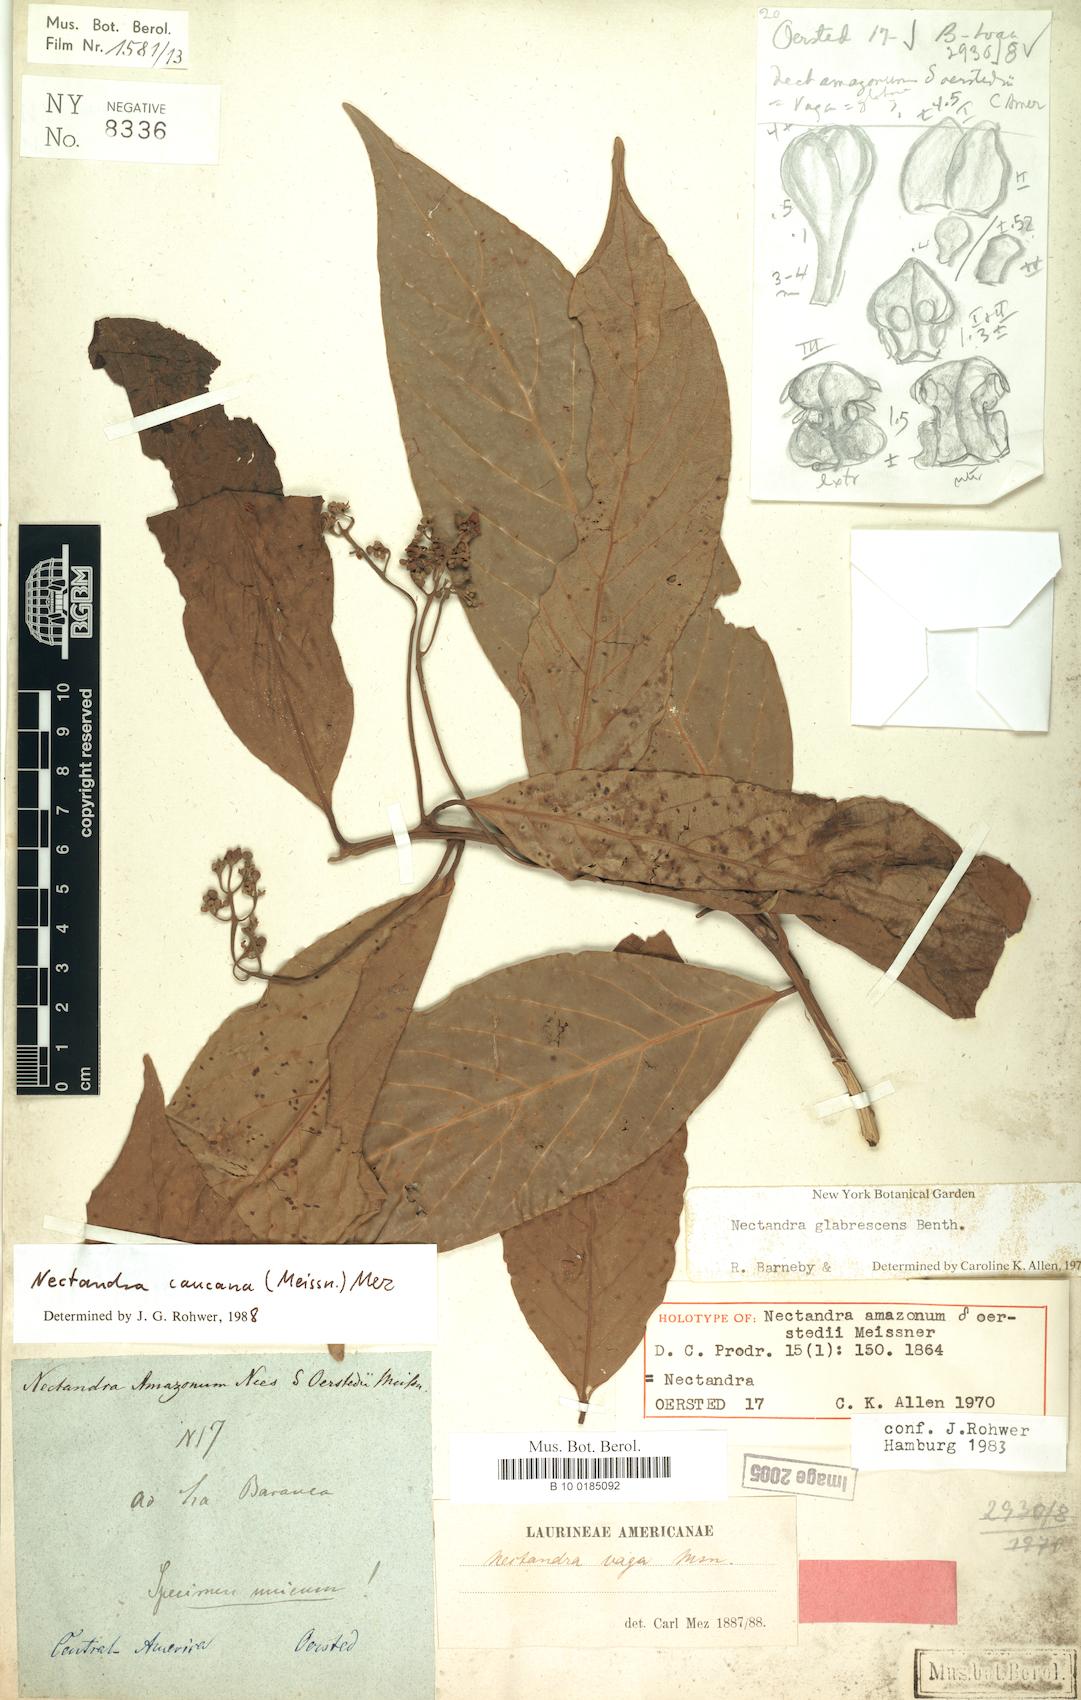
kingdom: Plantae
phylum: Tracheophyta
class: Magnoliopsida
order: Laurales
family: Lauraceae
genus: Nectandra
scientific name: Nectandra lineata
